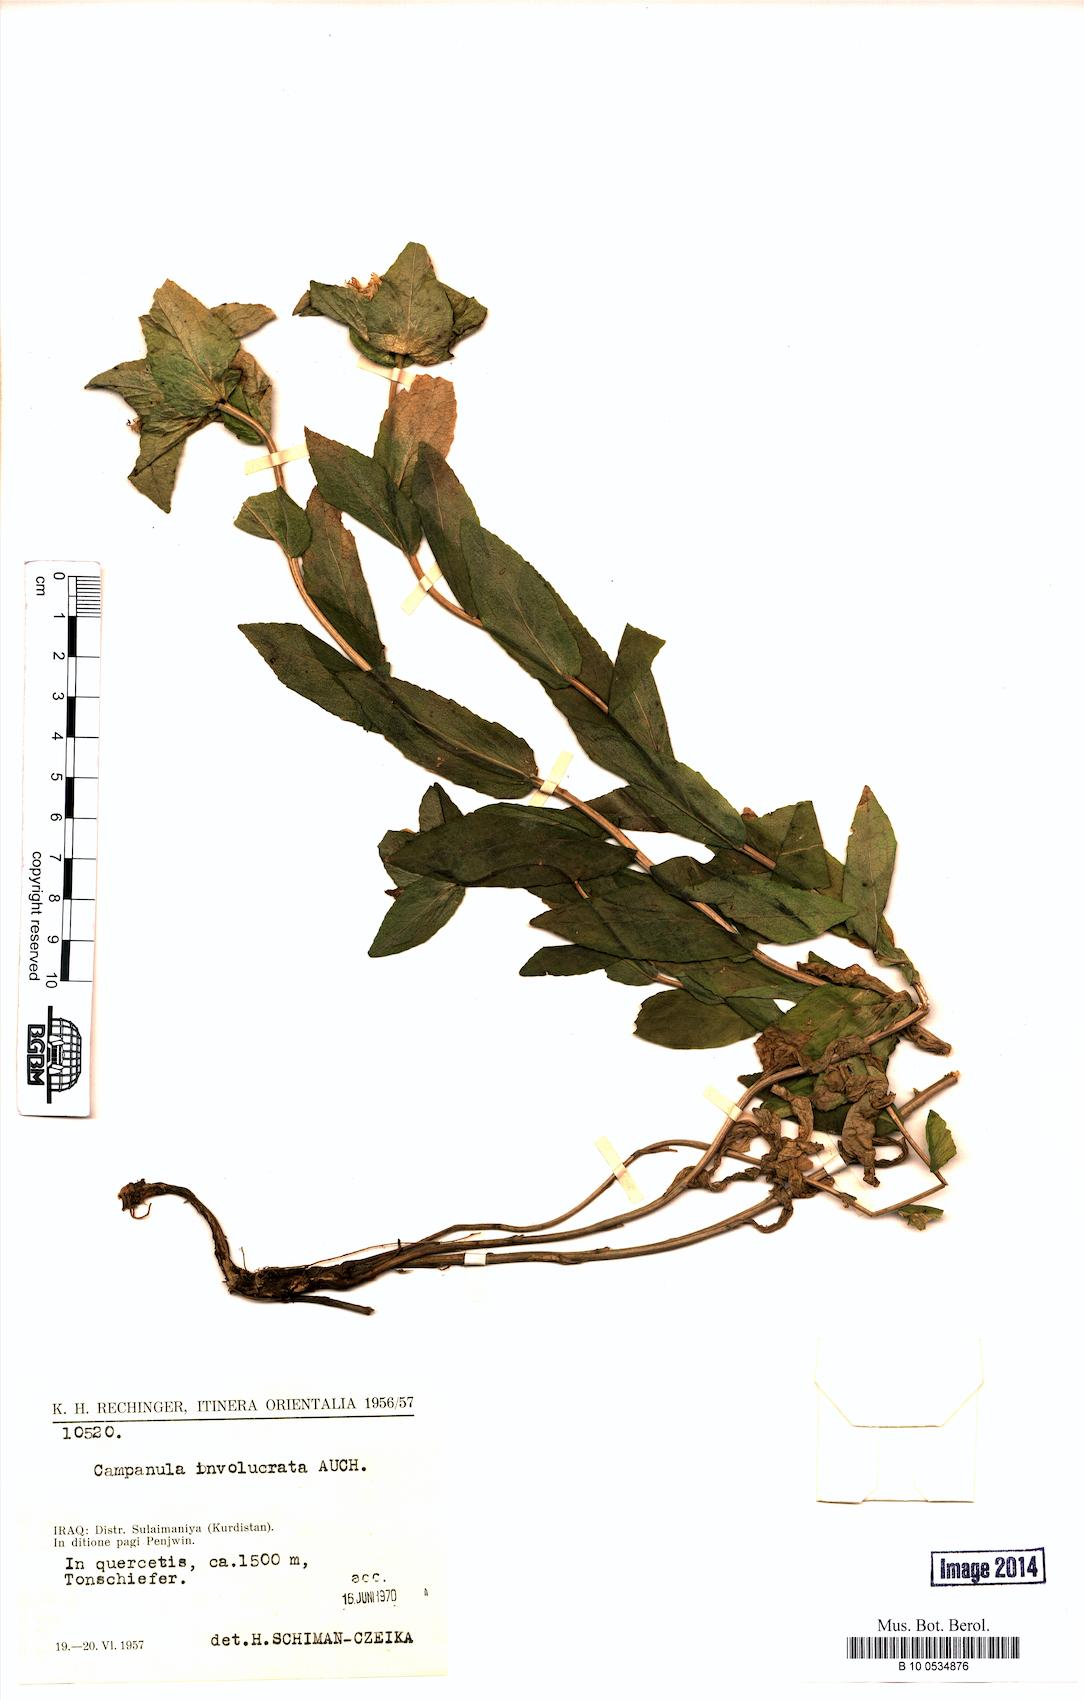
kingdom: Plantae
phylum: Tracheophyta
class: Magnoliopsida
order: Asterales
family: Campanulaceae
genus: Campanula
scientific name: Campanula involucrata
